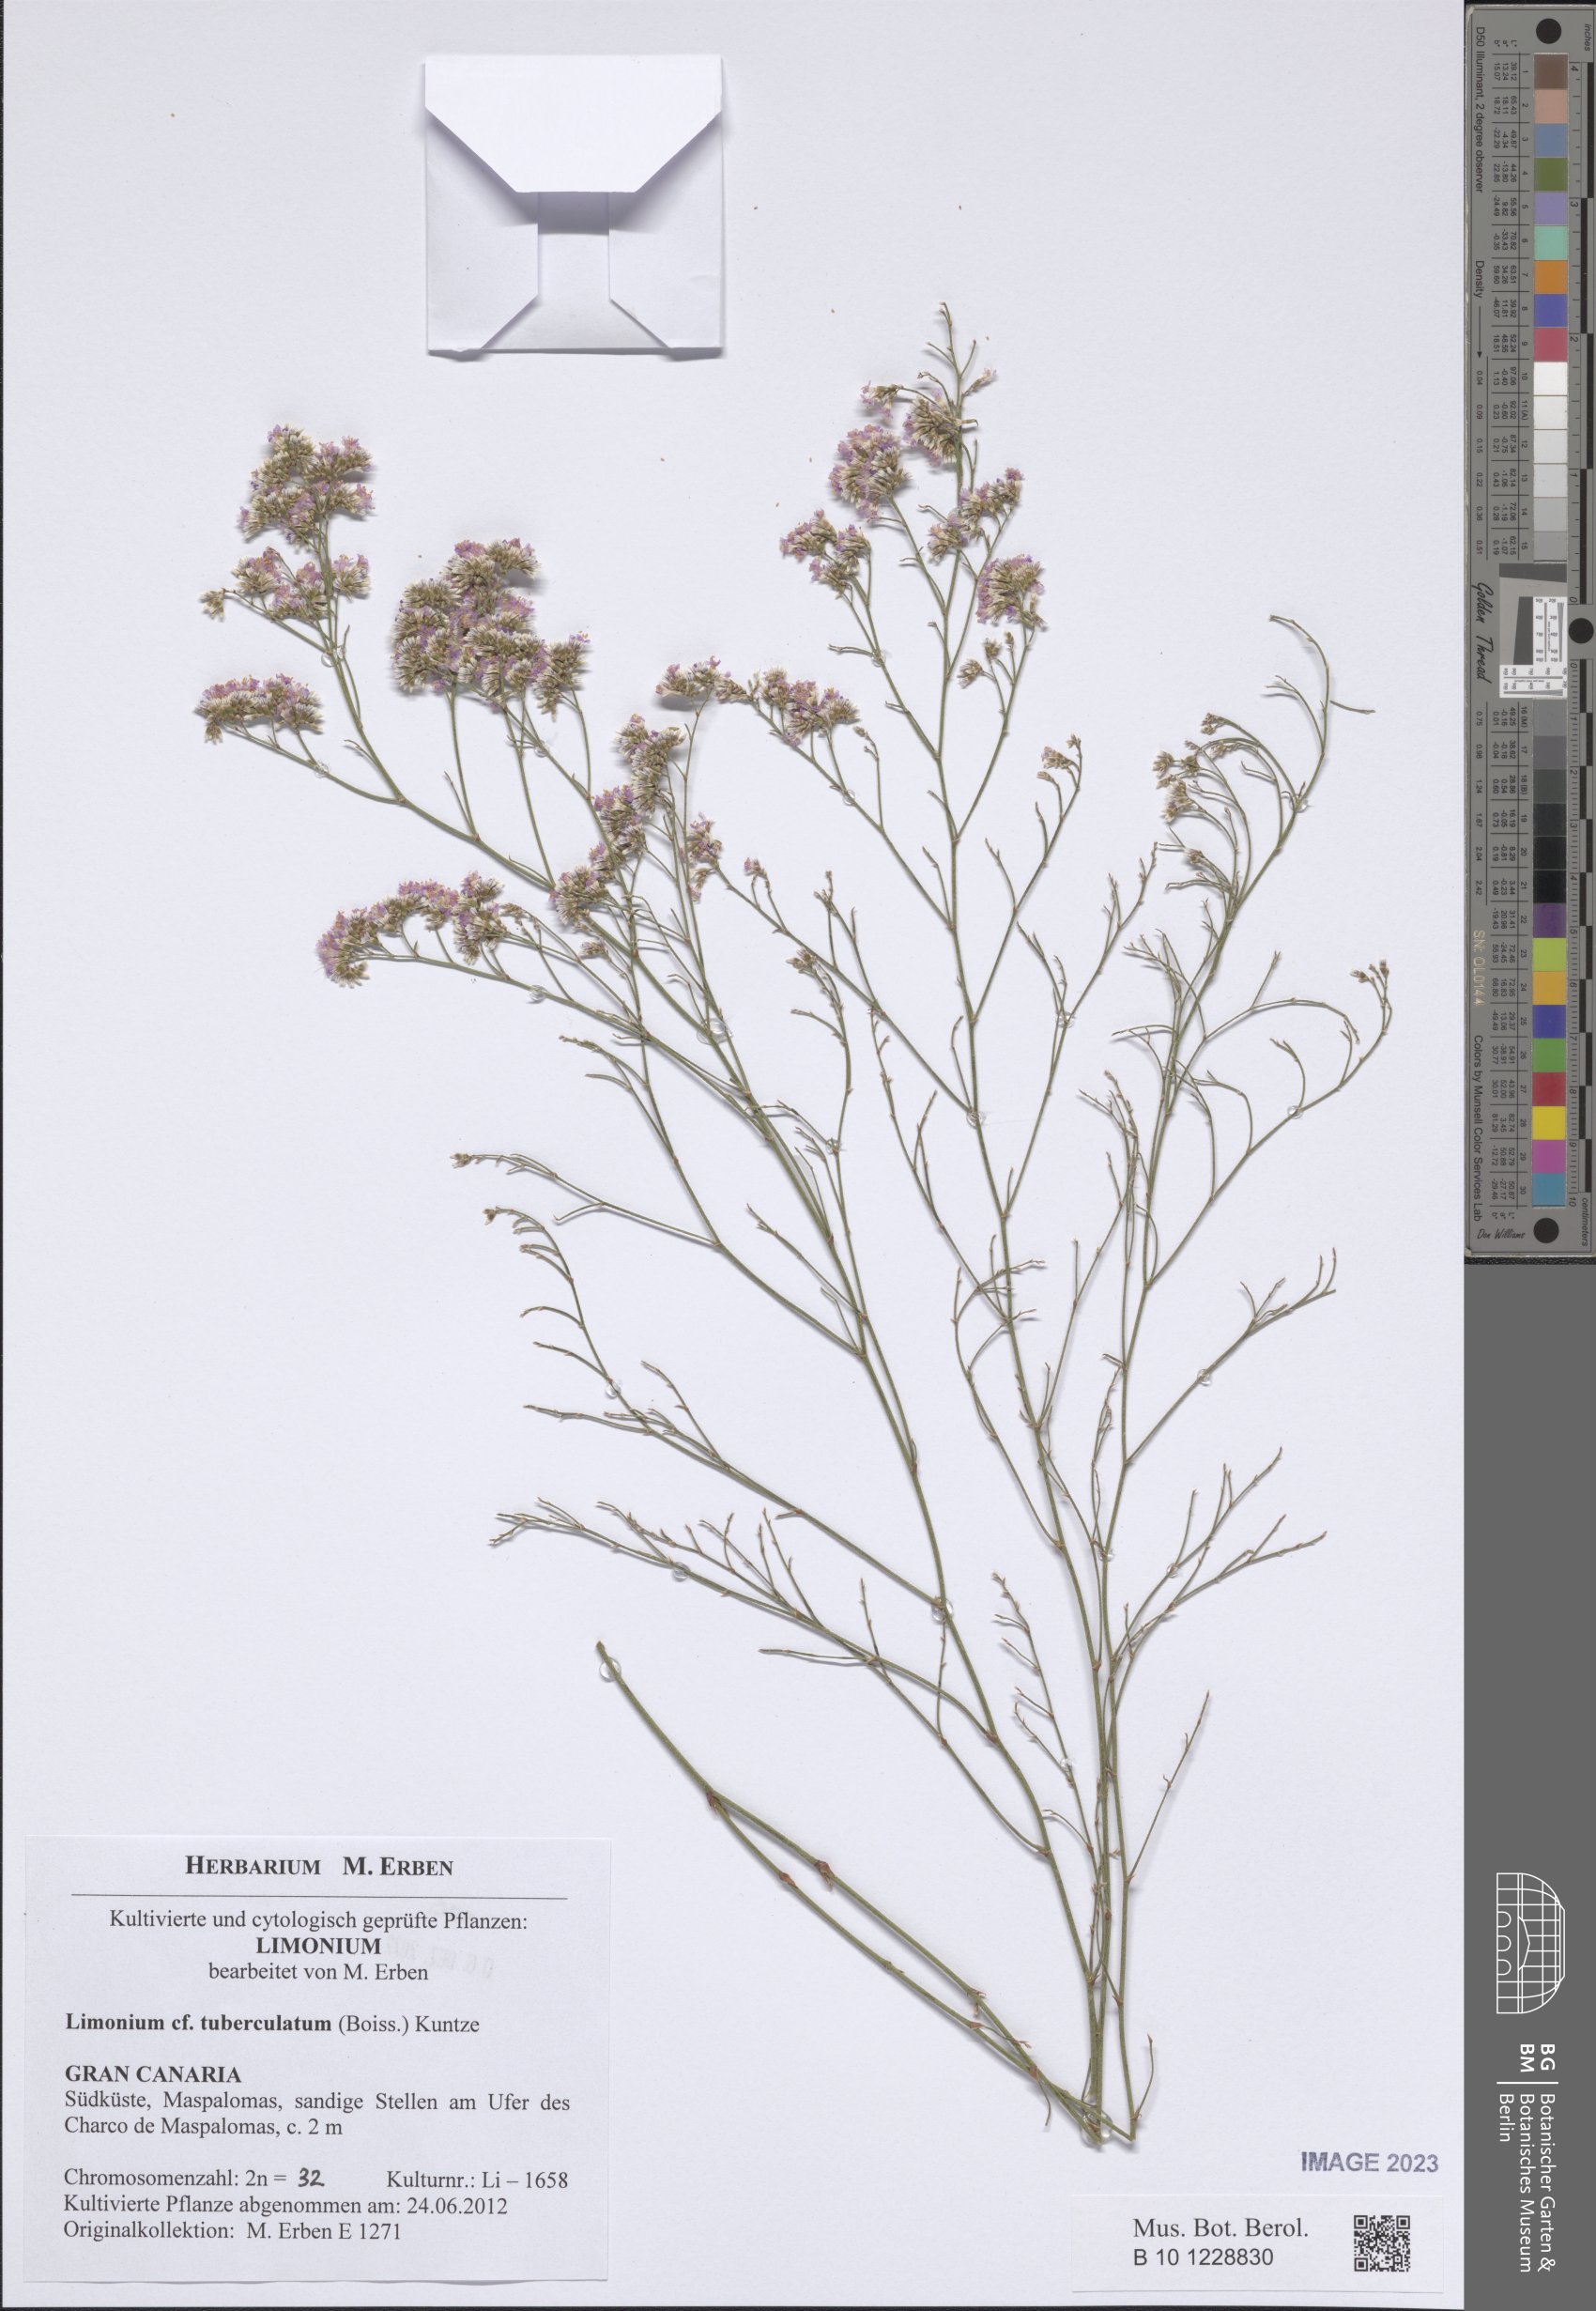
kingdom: Plantae
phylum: Tracheophyta
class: Magnoliopsida
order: Caryophyllales
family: Plumbaginaceae
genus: Limonium
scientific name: Limonium tuberculatum
